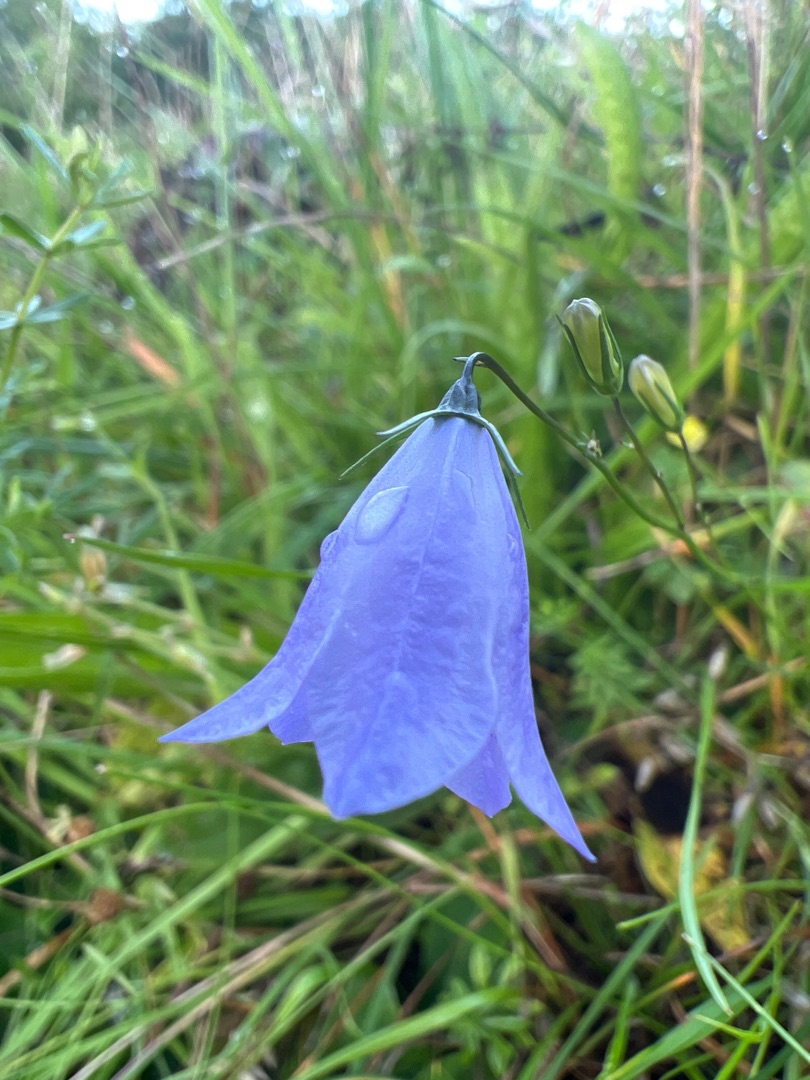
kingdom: Plantae
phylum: Tracheophyta
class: Magnoliopsida
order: Asterales
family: Campanulaceae
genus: Campanula
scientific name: Campanula rotundifolia
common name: Liden klokke
